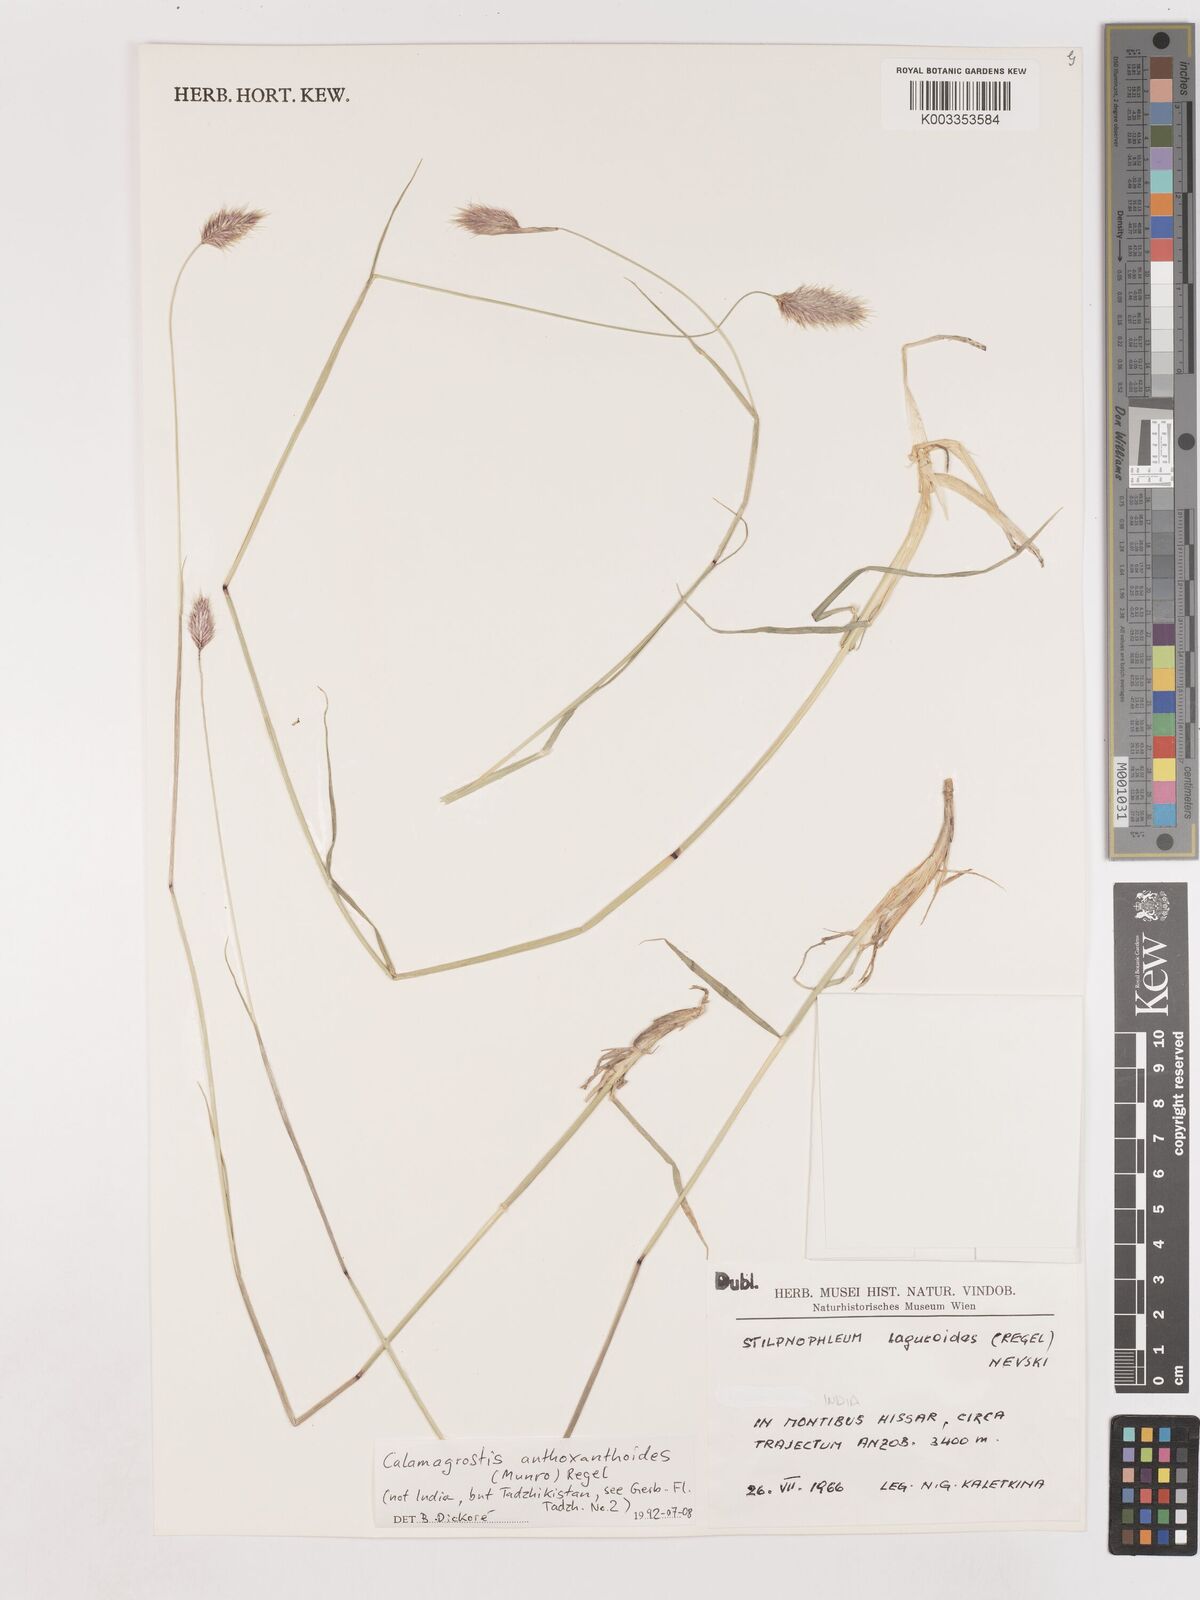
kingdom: Plantae
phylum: Tracheophyta
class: Liliopsida
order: Poales
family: Poaceae
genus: Calamagrostis
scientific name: Calamagrostis anthoxanthoides
